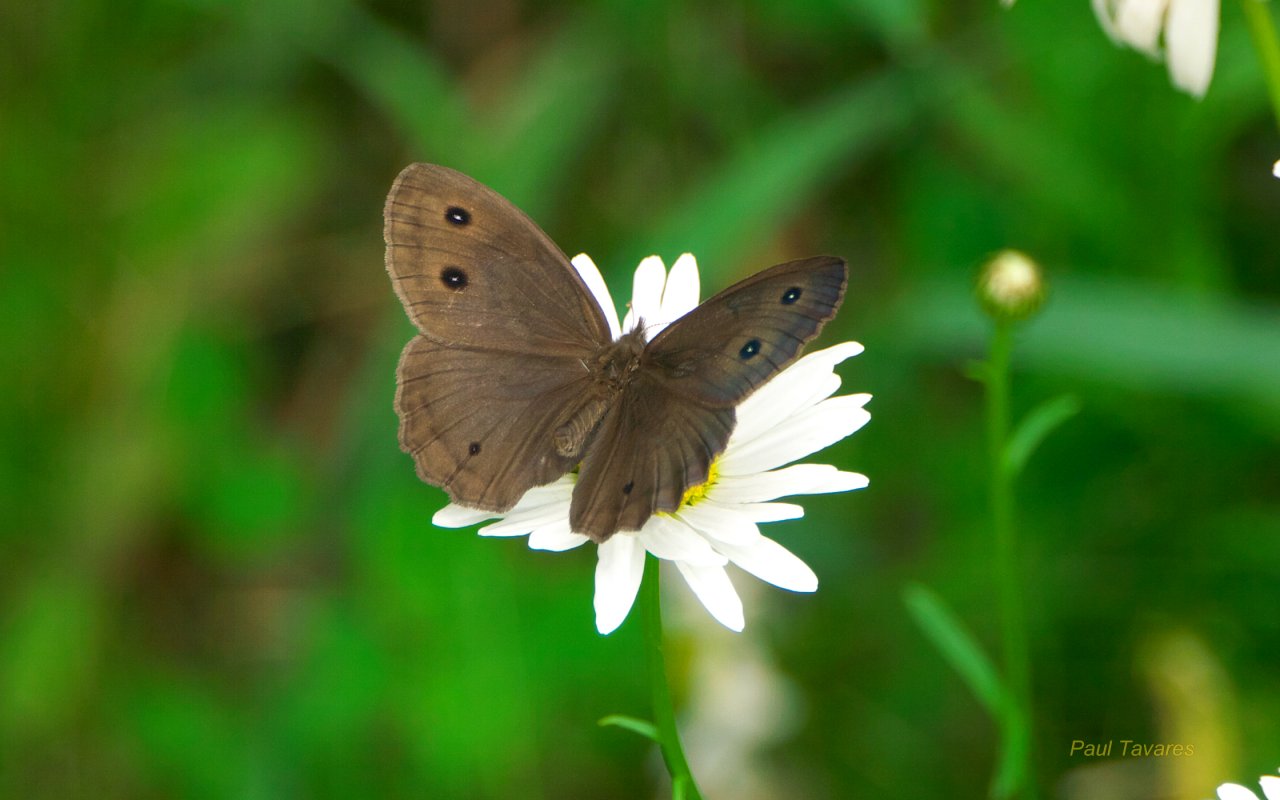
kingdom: Animalia
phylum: Arthropoda
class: Insecta
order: Lepidoptera
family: Nymphalidae
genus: Cercyonis
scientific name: Cercyonis pegala
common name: Common Wood-Nymph
